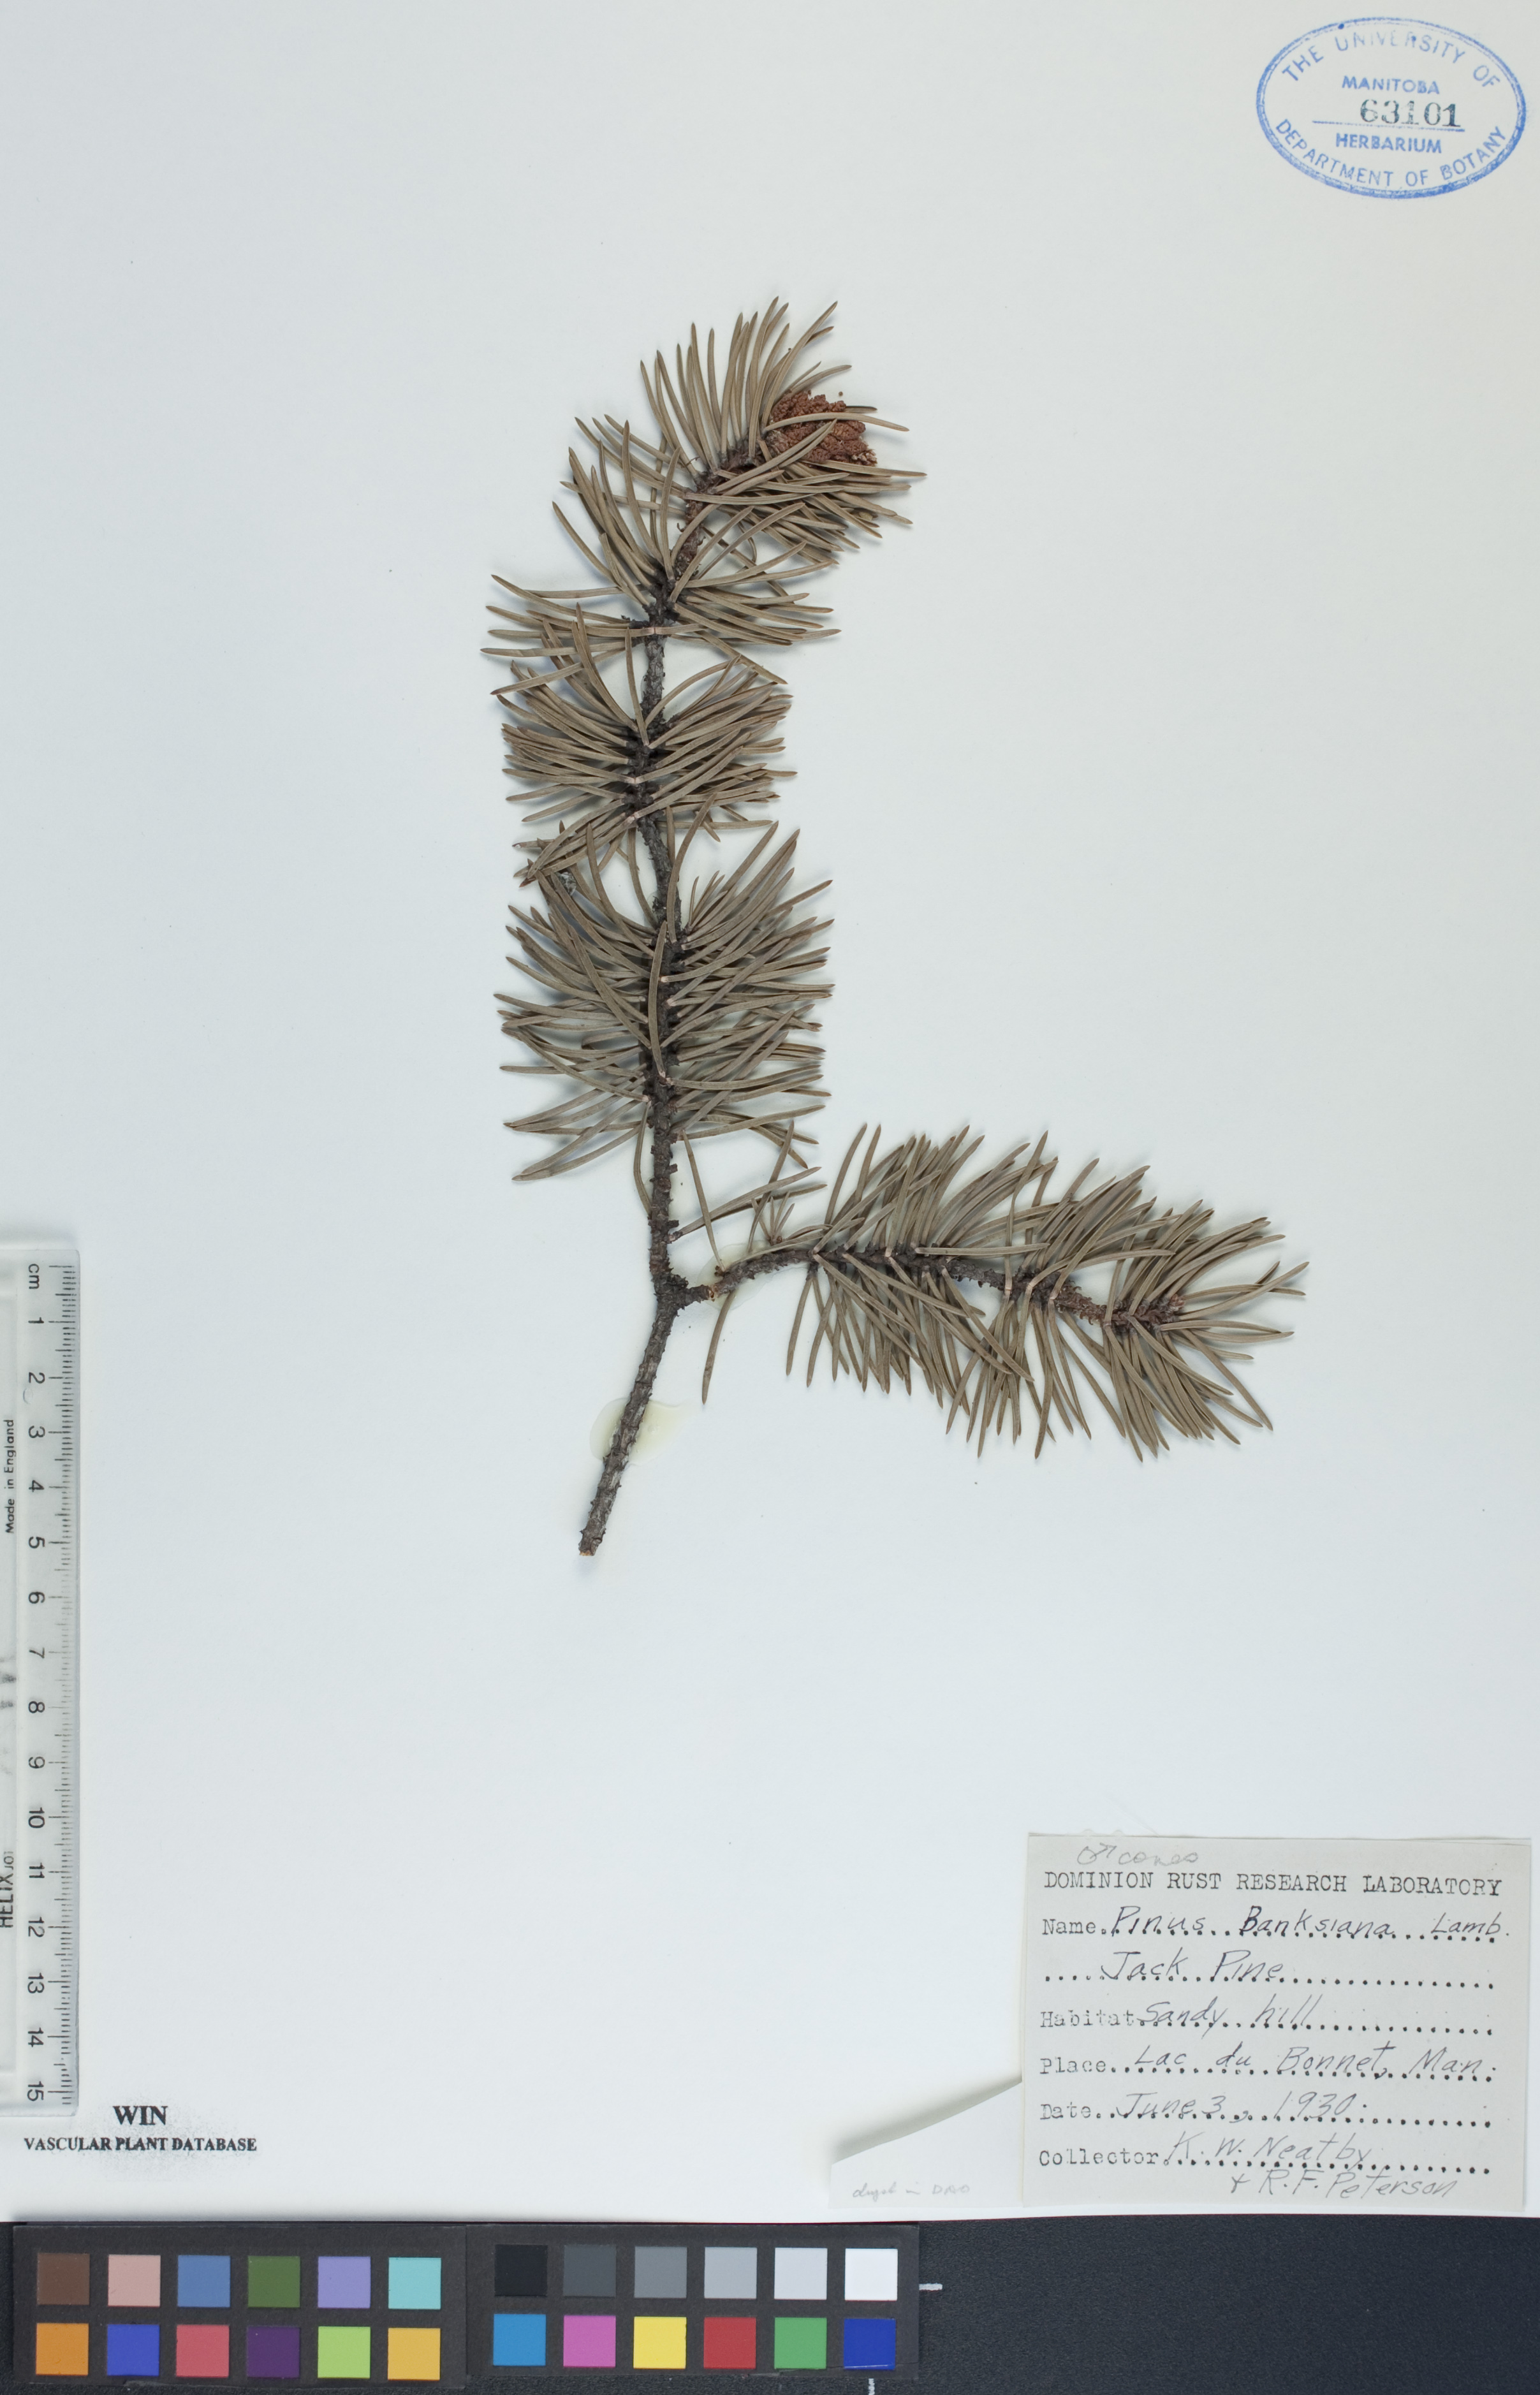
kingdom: Plantae
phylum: Tracheophyta
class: Pinopsida
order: Pinales
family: Pinaceae
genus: Pinus
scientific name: Pinus banksiana
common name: Jack pine
